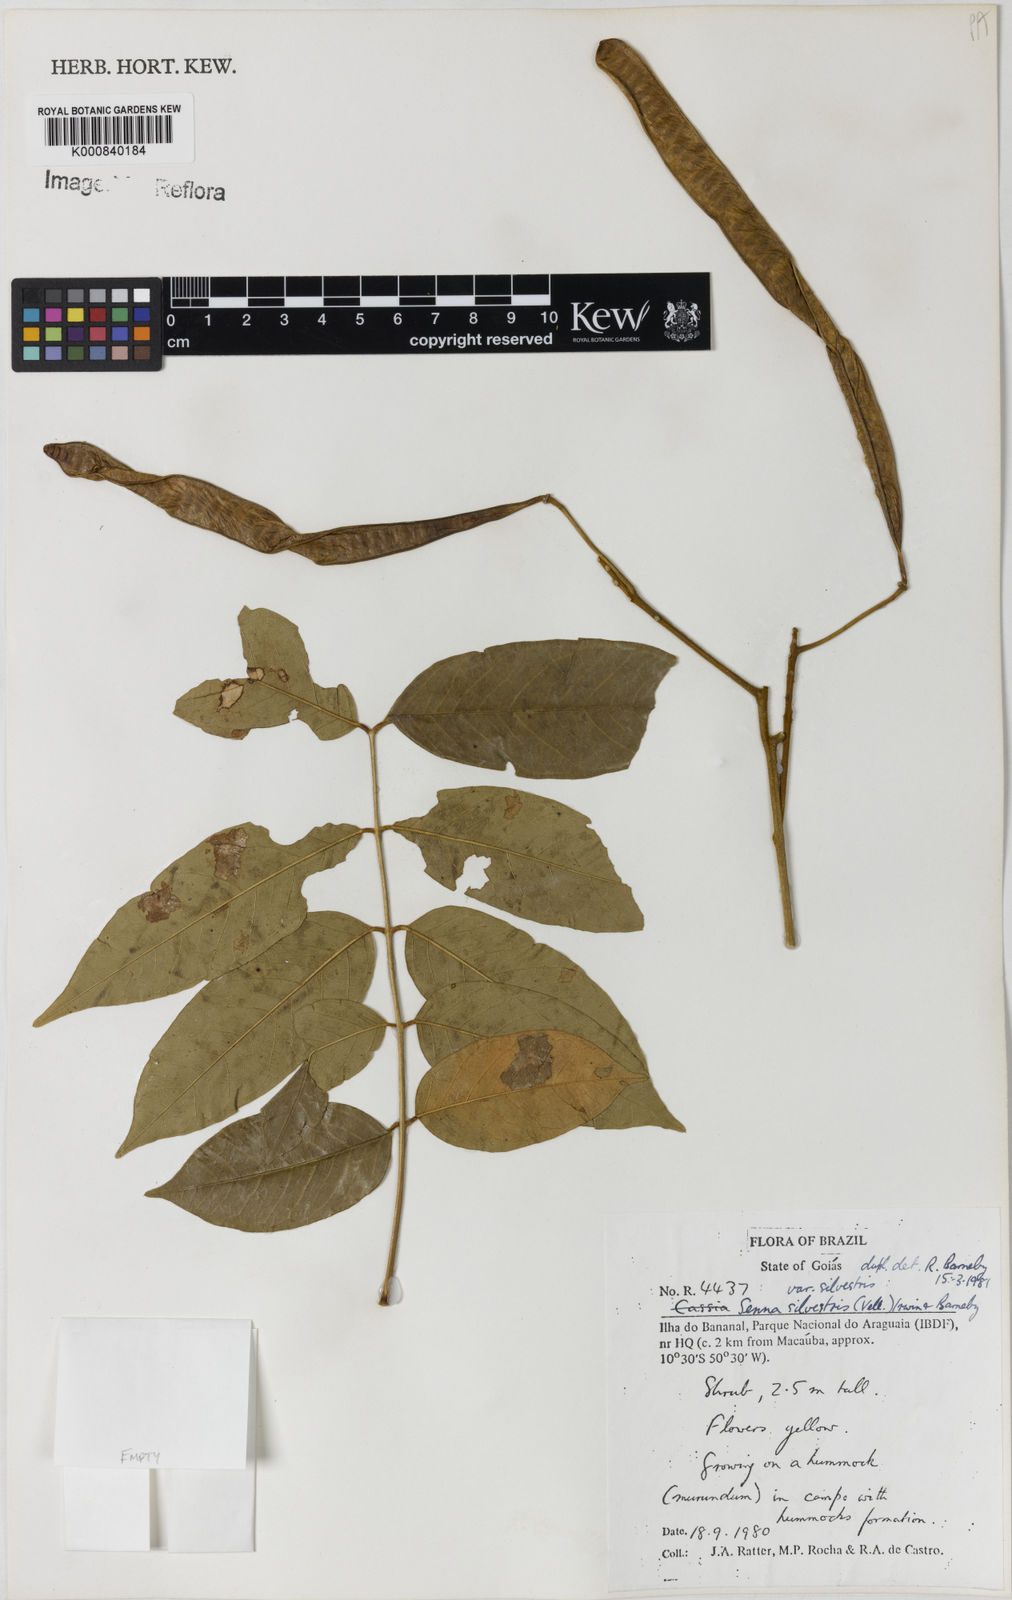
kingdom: Plantae
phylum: Tracheophyta
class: Magnoliopsida
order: Fabales
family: Fabaceae
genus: Senna
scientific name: Senna silvestris
